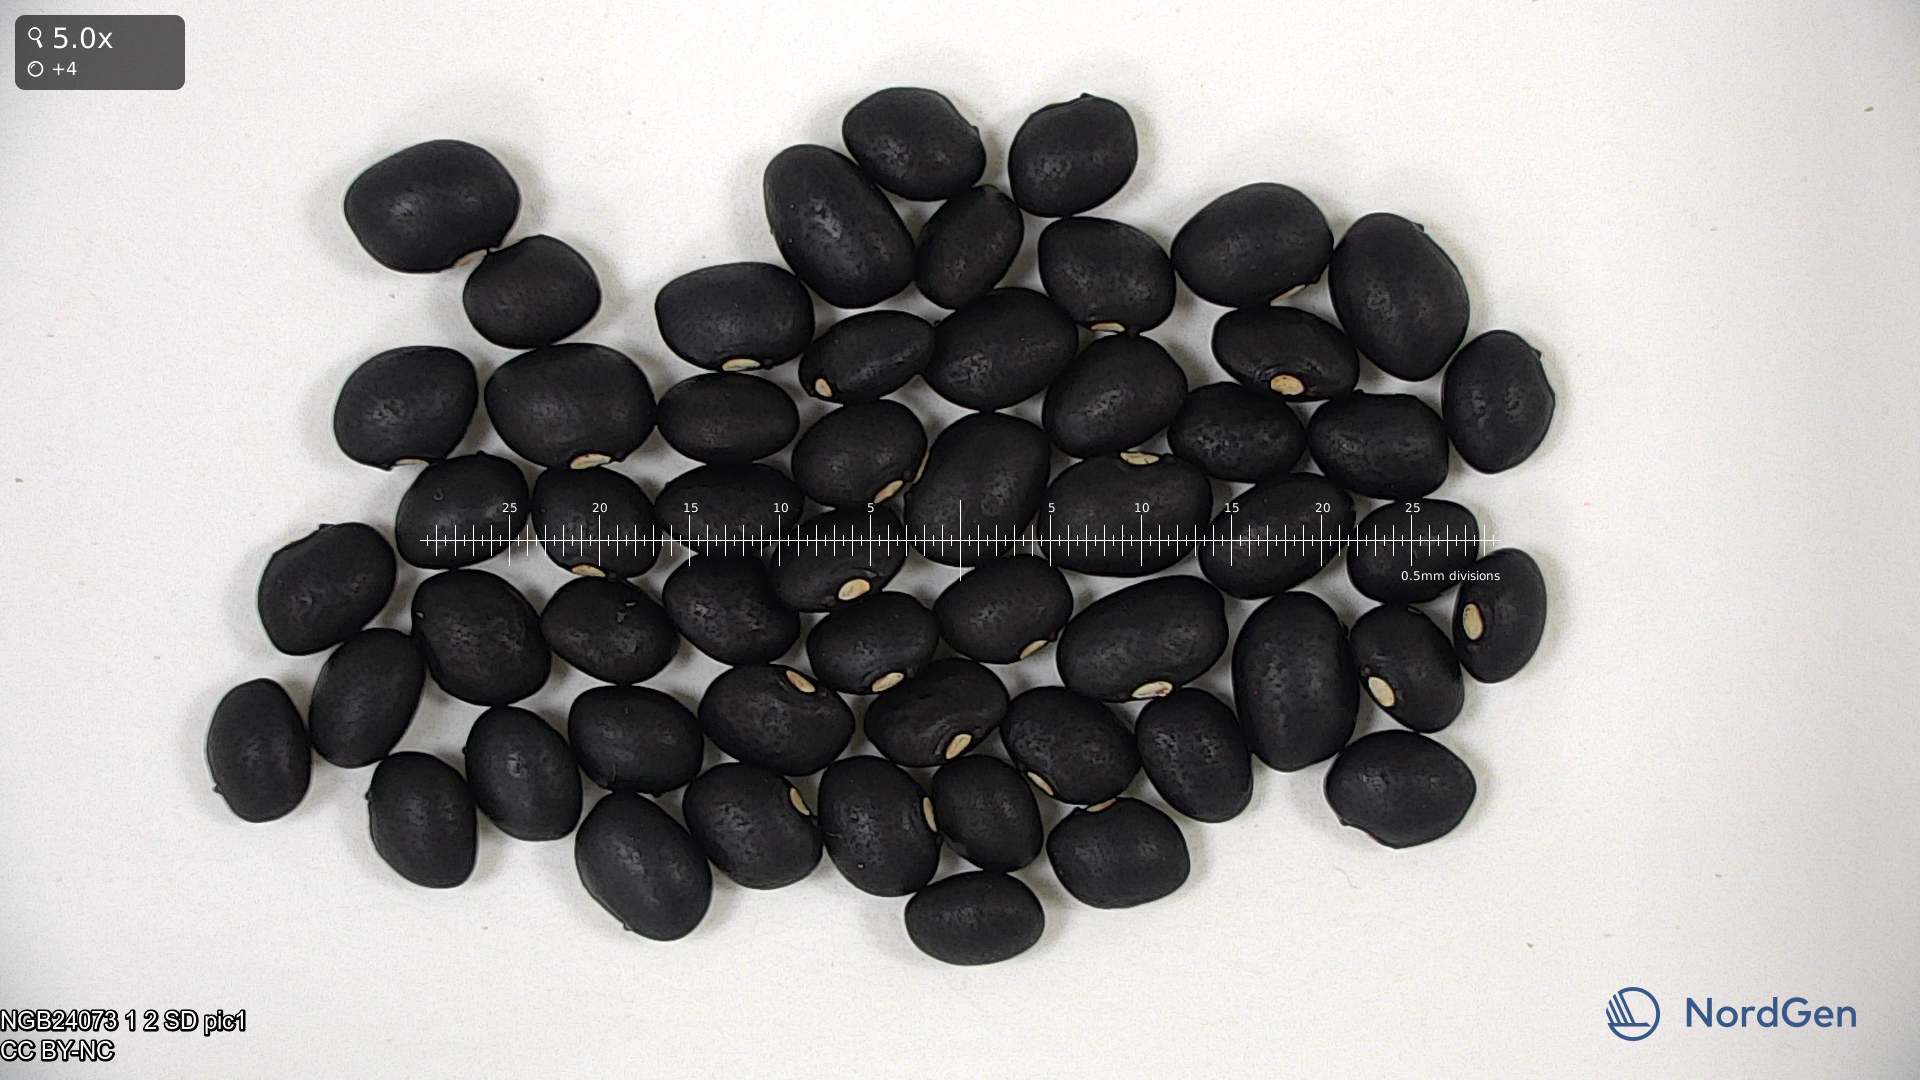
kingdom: Plantae
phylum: Tracheophyta
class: Magnoliopsida
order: Fabales
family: Fabaceae
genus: Phaseolus
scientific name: Phaseolus vulgaris
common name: Bean
